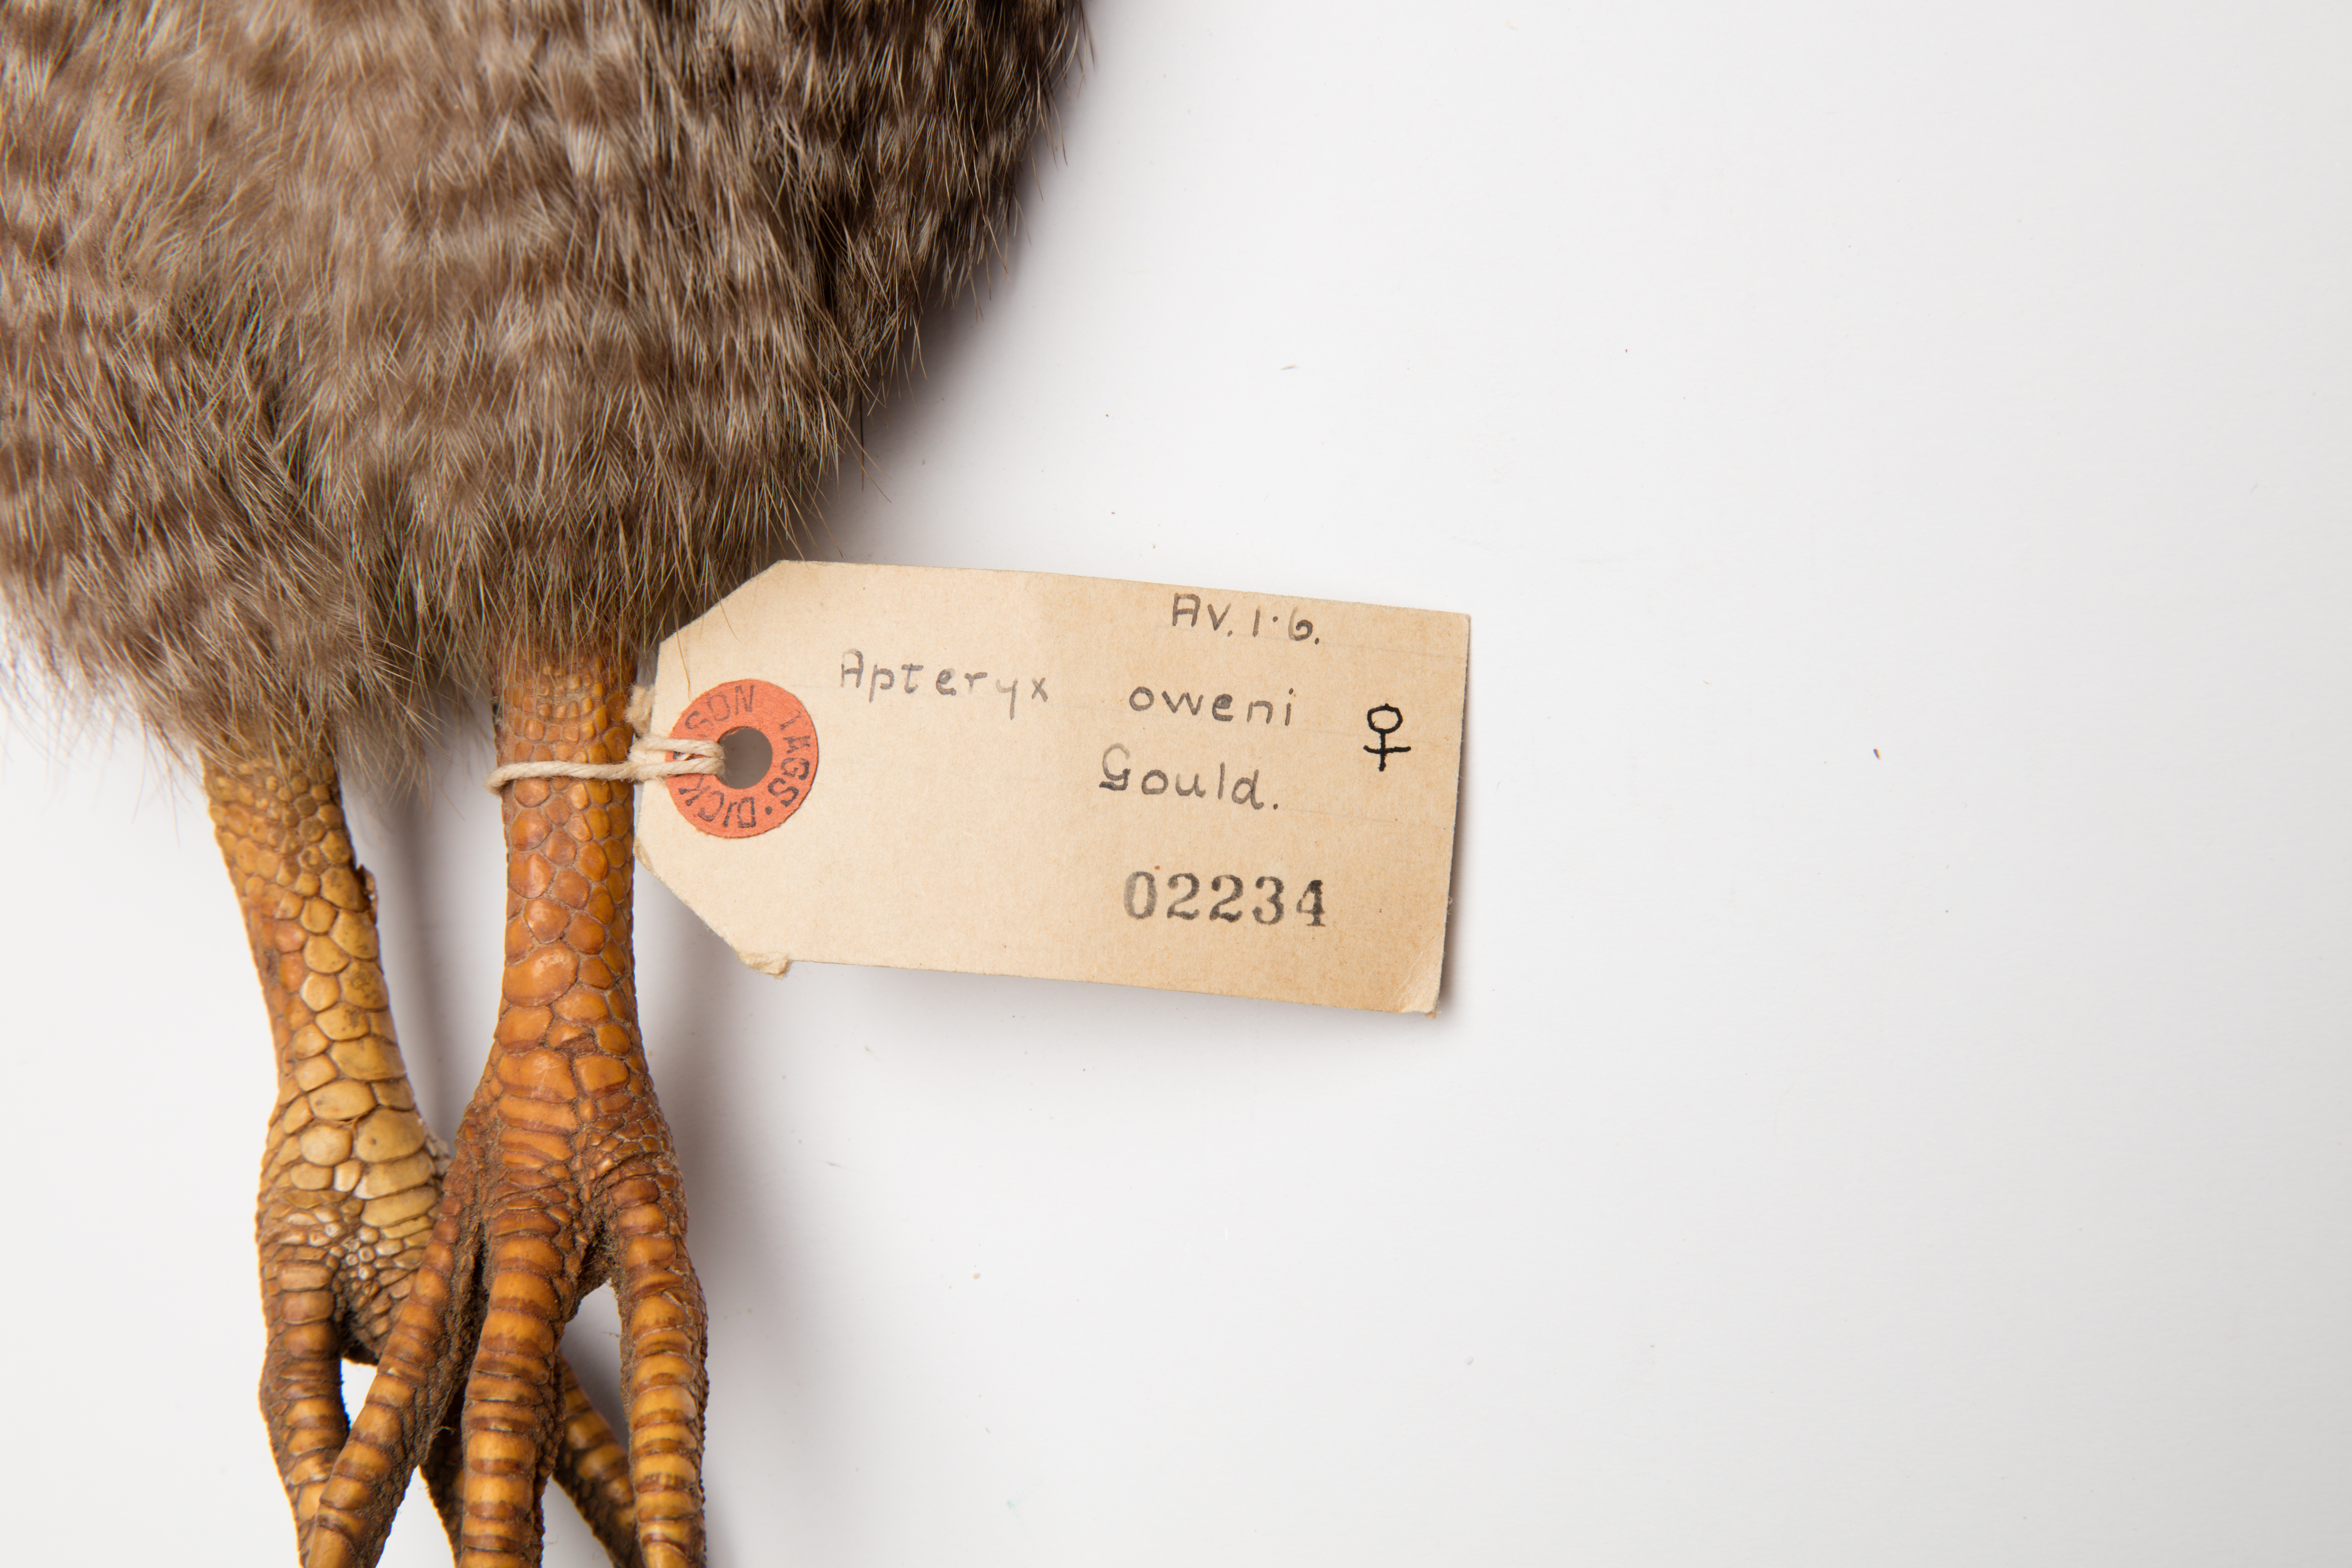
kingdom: Animalia
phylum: Chordata
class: Aves
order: Apterygiformes
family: Apterygidae
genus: Apteryx
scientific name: Apteryx owenii
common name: Little spotted kiwi
